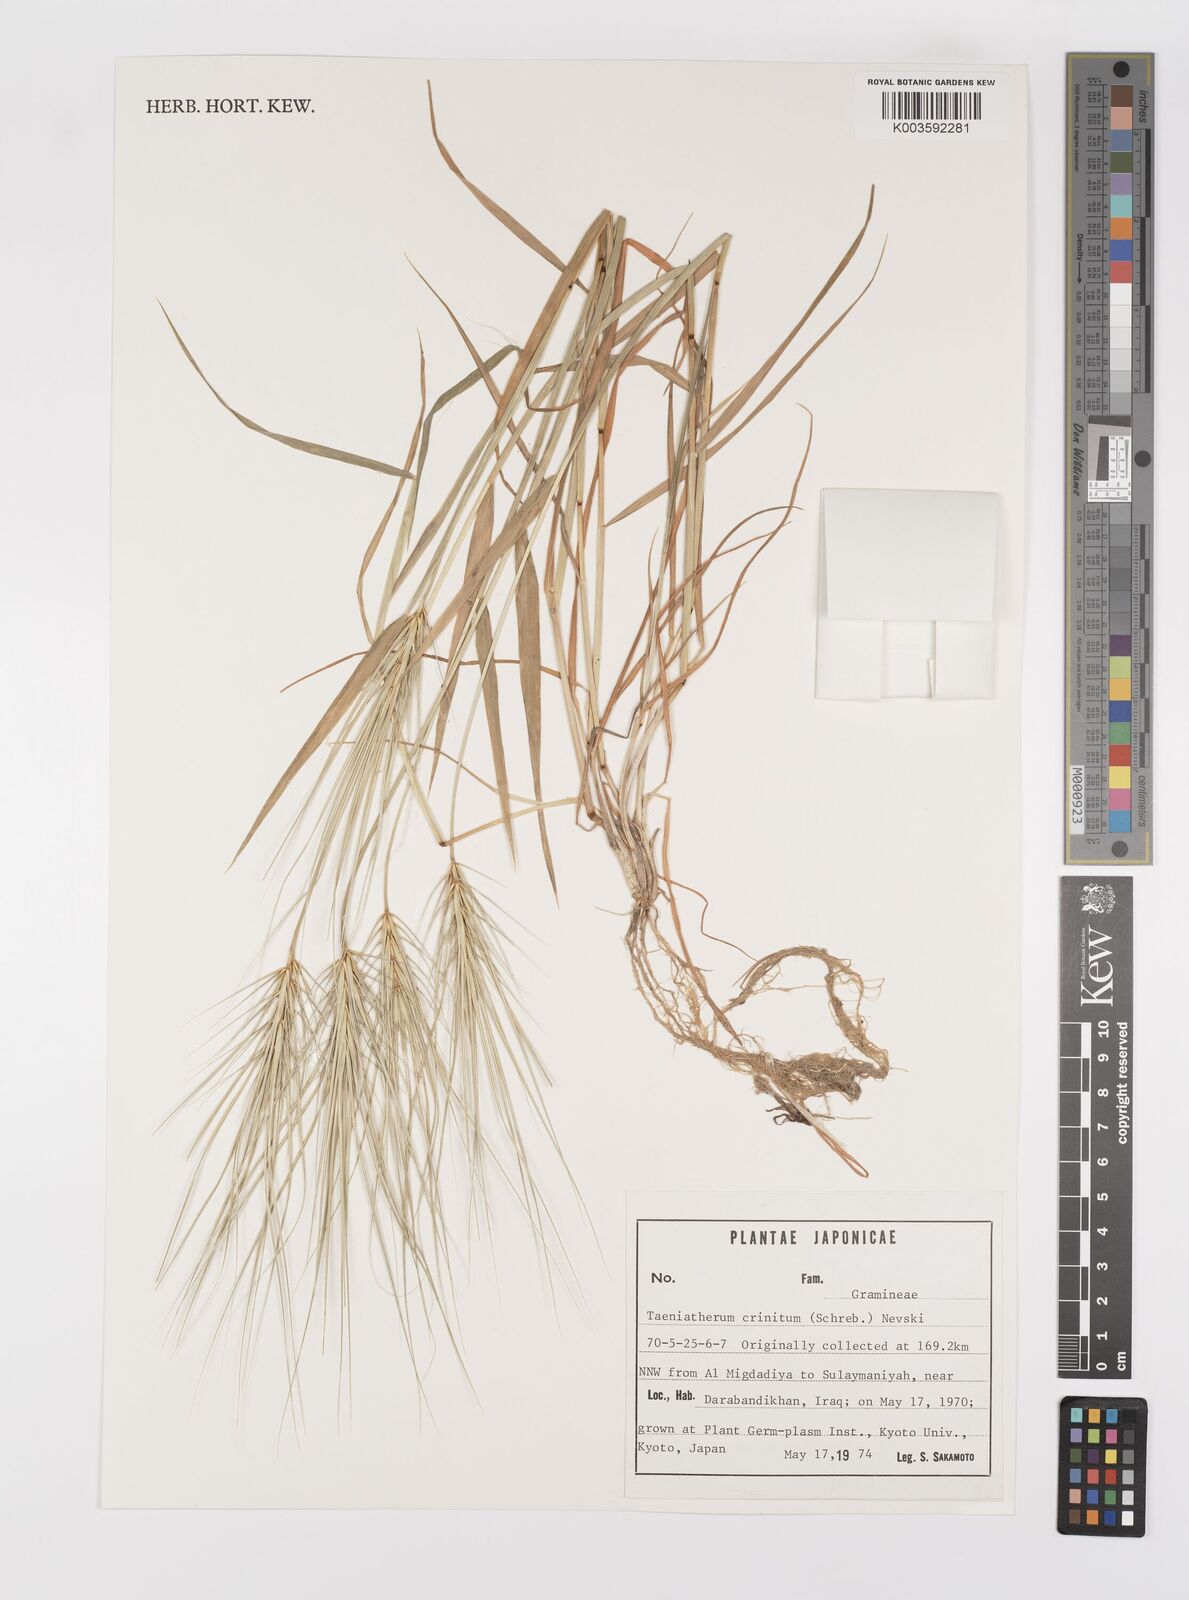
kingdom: Plantae
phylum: Tracheophyta
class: Liliopsida
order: Poales
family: Poaceae
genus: Taeniatherum
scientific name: Taeniatherum caput-medusae
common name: Medusahead
